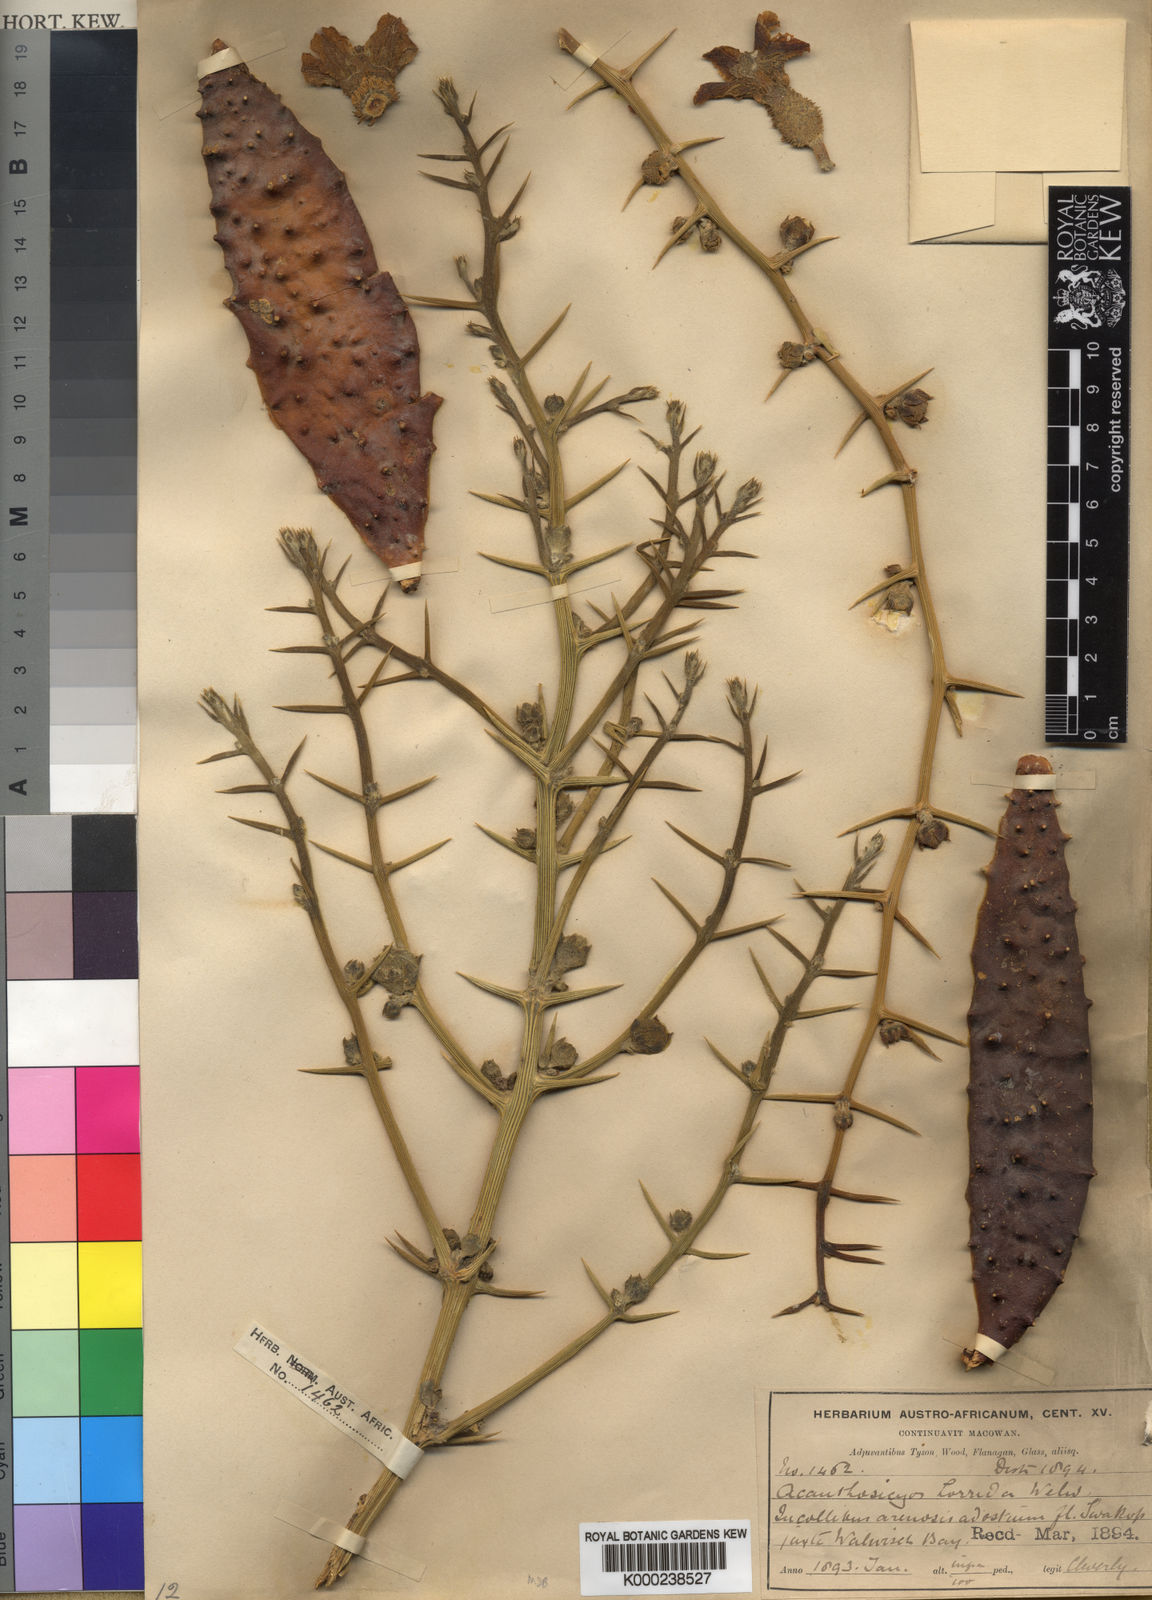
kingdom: Plantae
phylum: Tracheophyta
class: Magnoliopsida
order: Cucurbitales
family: Cucurbitaceae
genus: Acanthosicyos
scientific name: Acanthosicyos horridus
